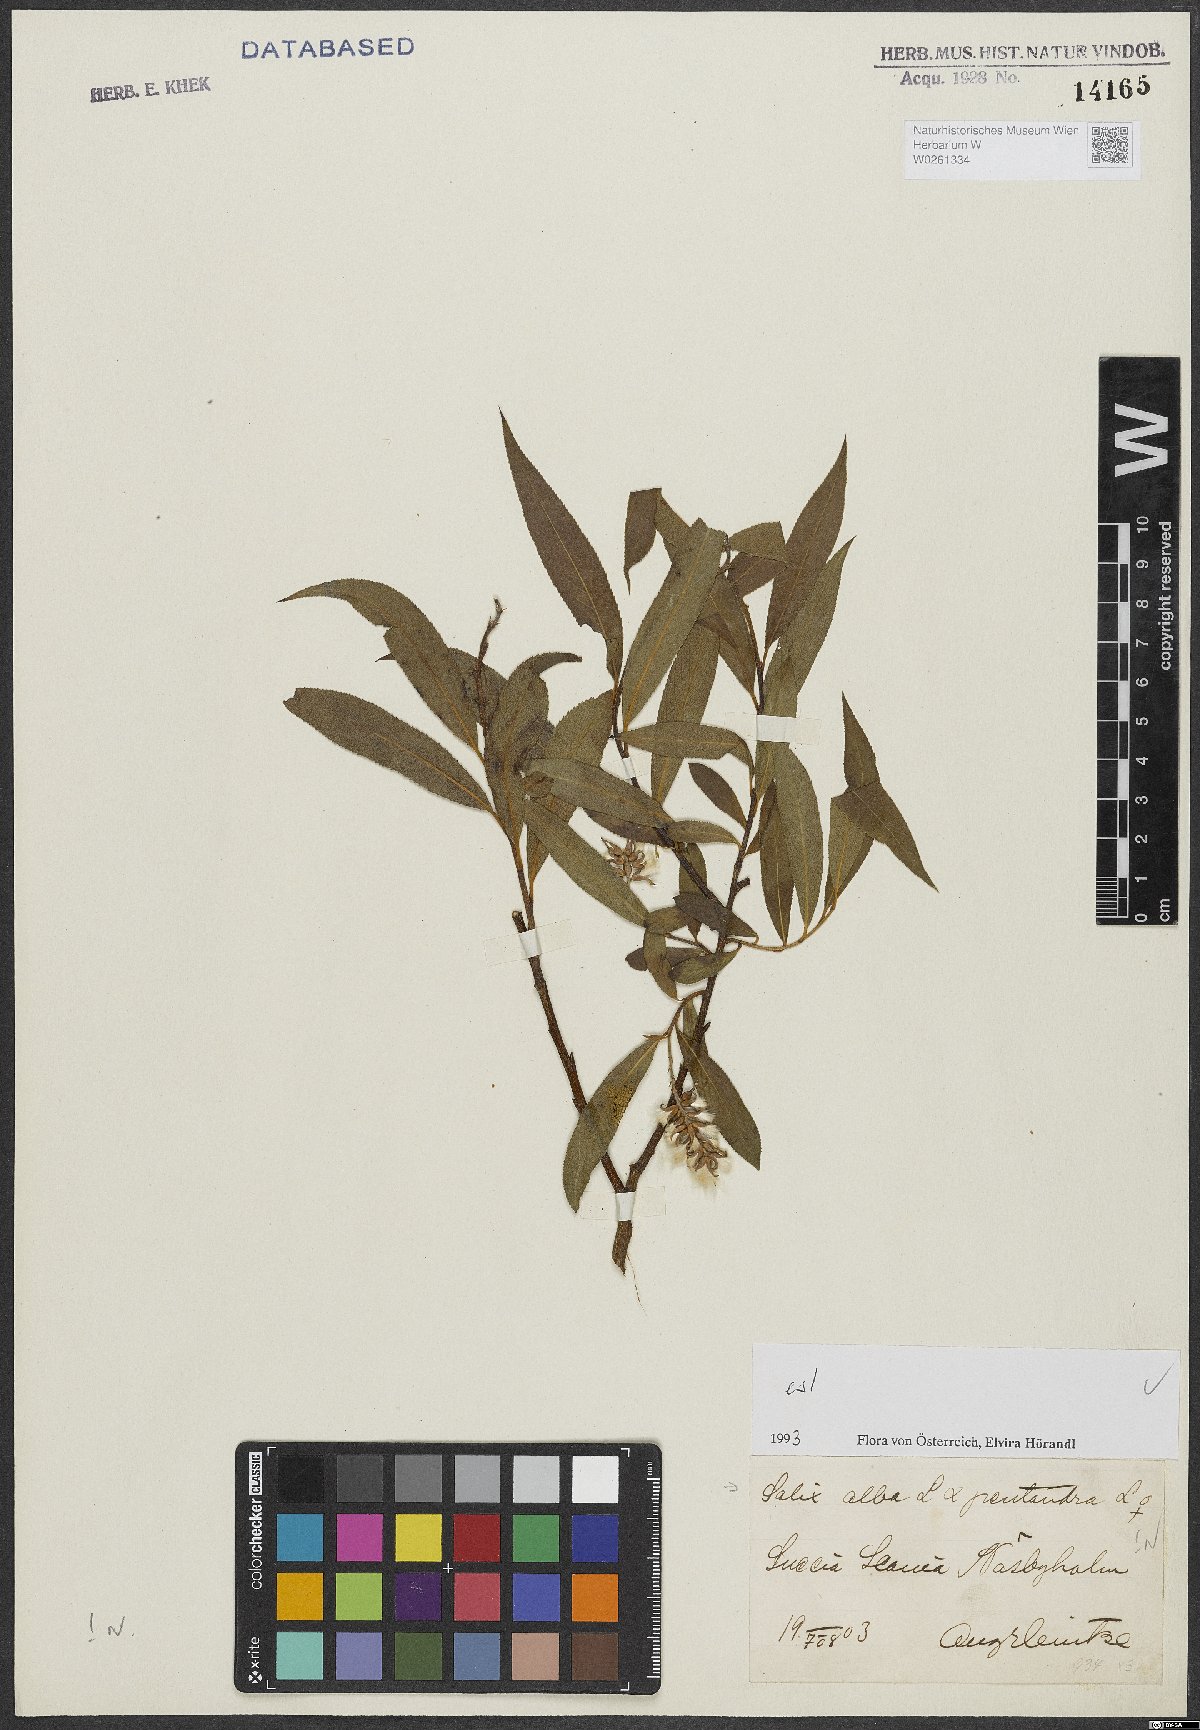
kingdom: Plantae
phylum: Tracheophyta
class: Magnoliopsida
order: Malpighiales
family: Salicaceae
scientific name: Salicaceae
